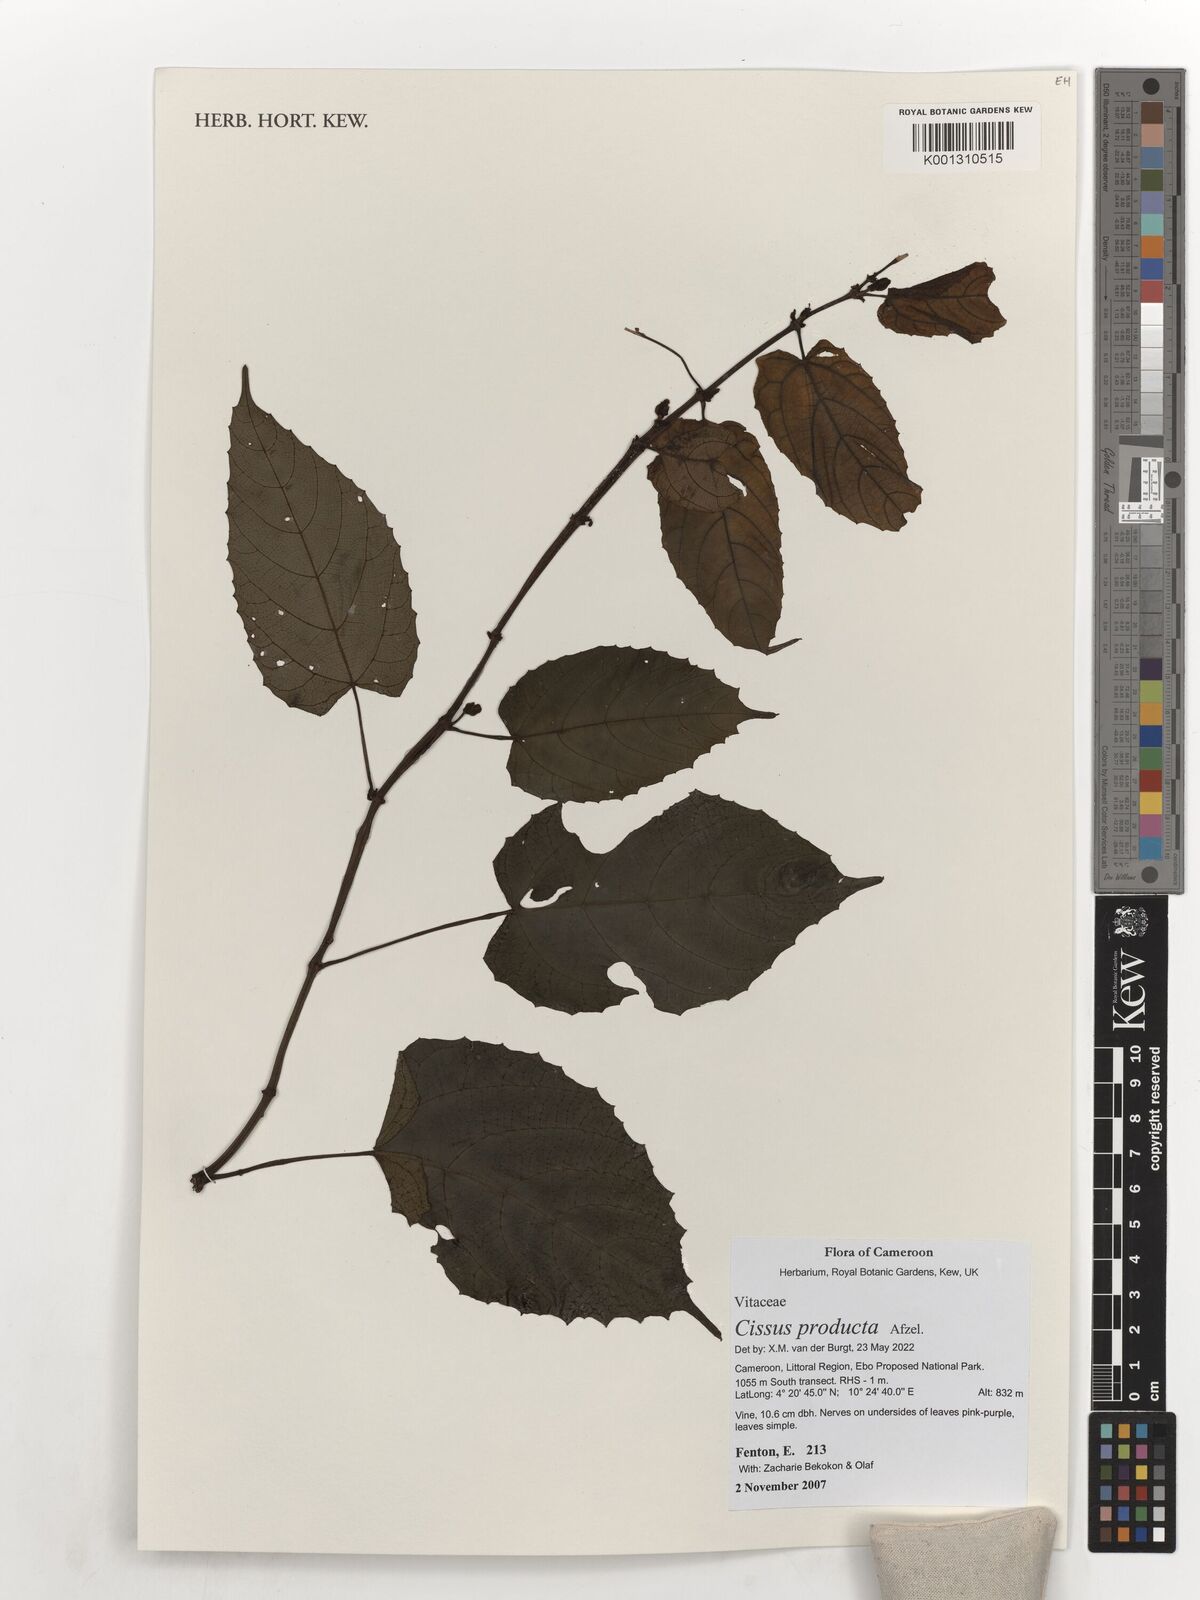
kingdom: Plantae
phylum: Tracheophyta
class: Magnoliopsida
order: Vitales
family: Vitaceae
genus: Cissus
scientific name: Cissus producta
